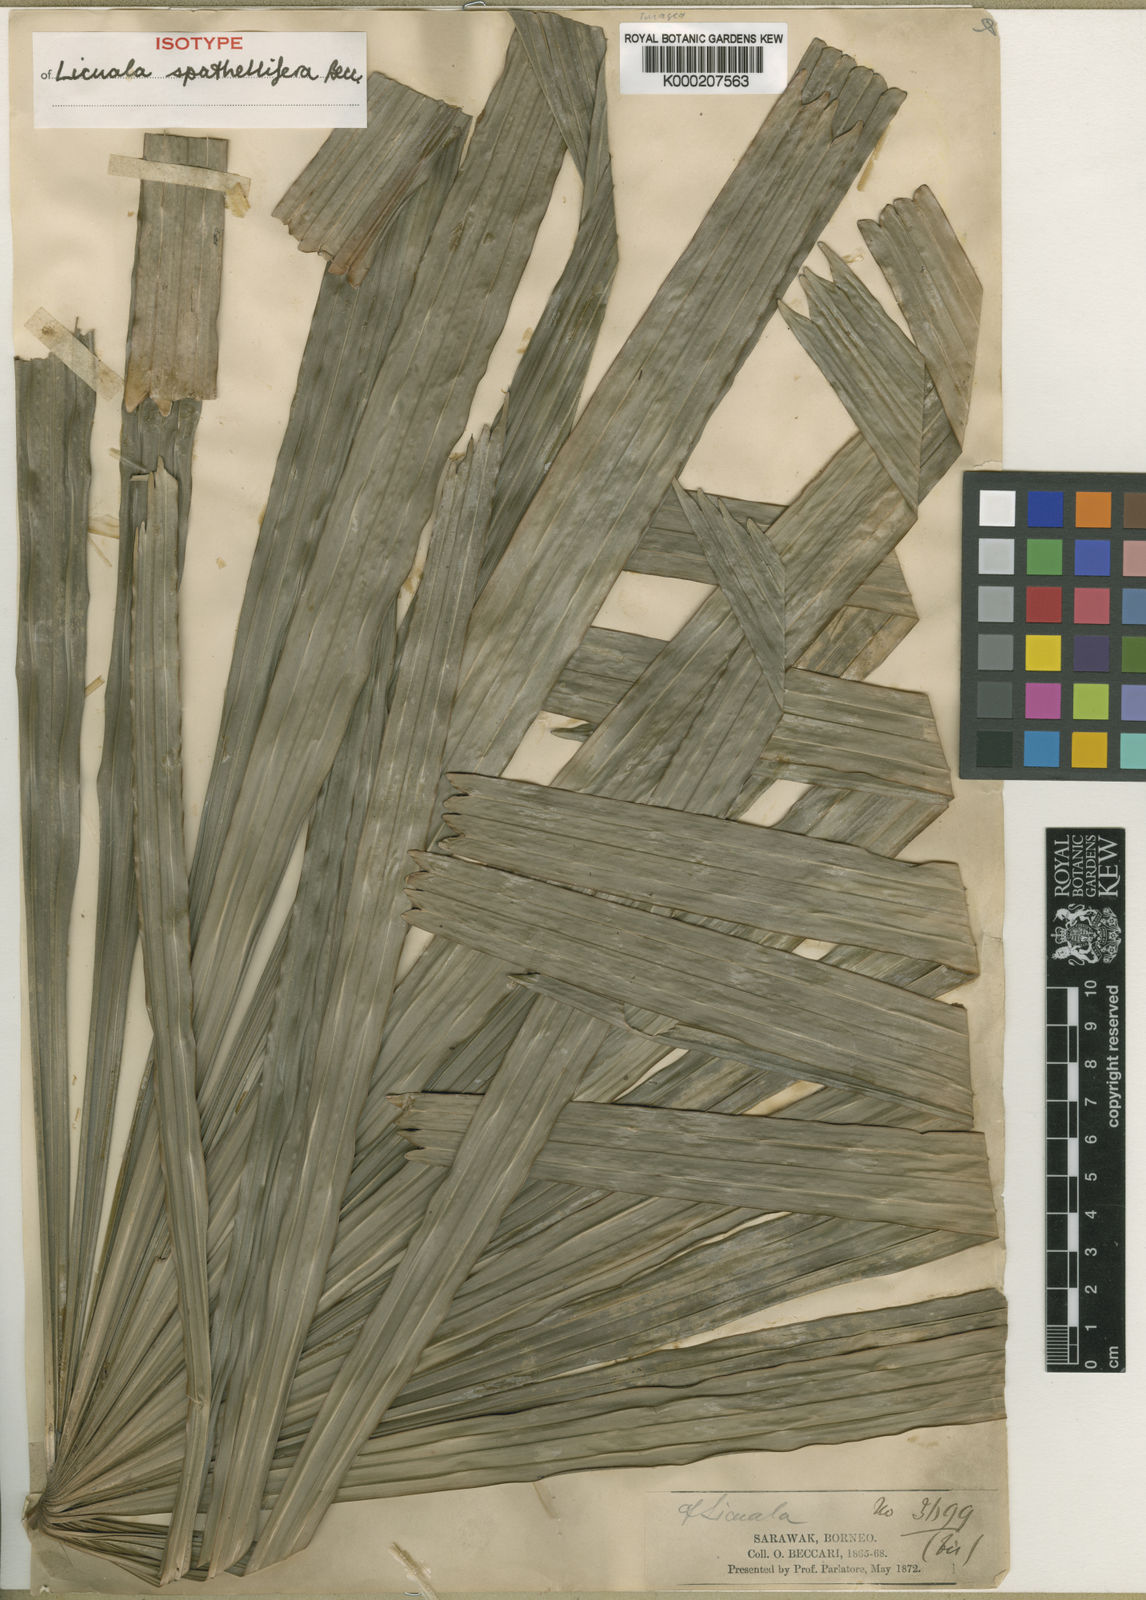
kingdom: Plantae
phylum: Tracheophyta
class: Liliopsida
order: Arecales
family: Arecaceae
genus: Licuala
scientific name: Licuala spathellifera
